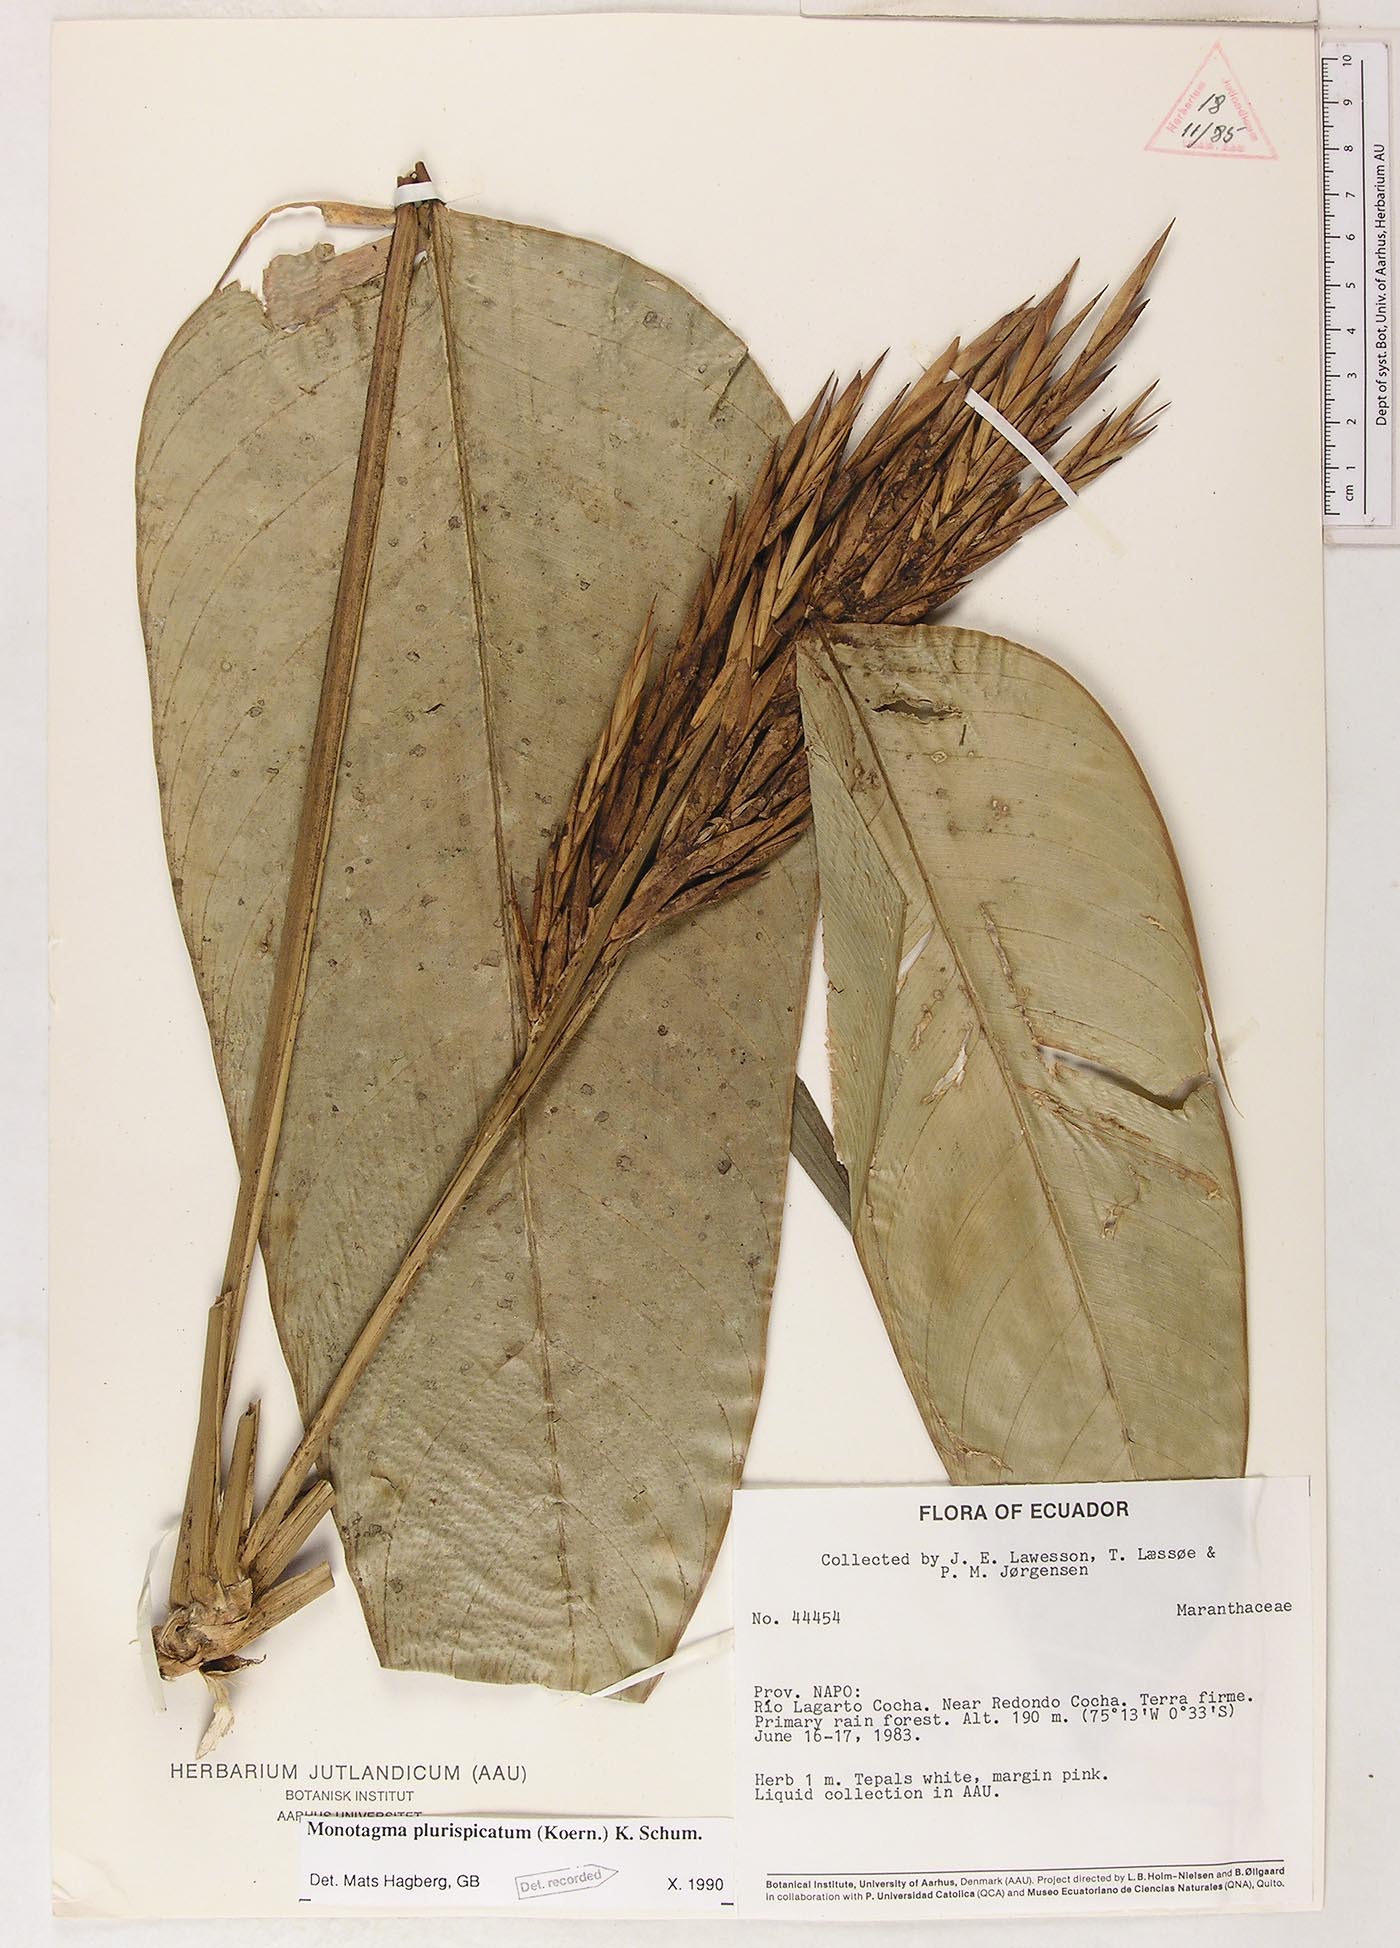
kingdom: Plantae
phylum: Tracheophyta
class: Liliopsida
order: Zingiberales
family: Marantaceae
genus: Monotagma
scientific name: Monotagma plurispicatum
